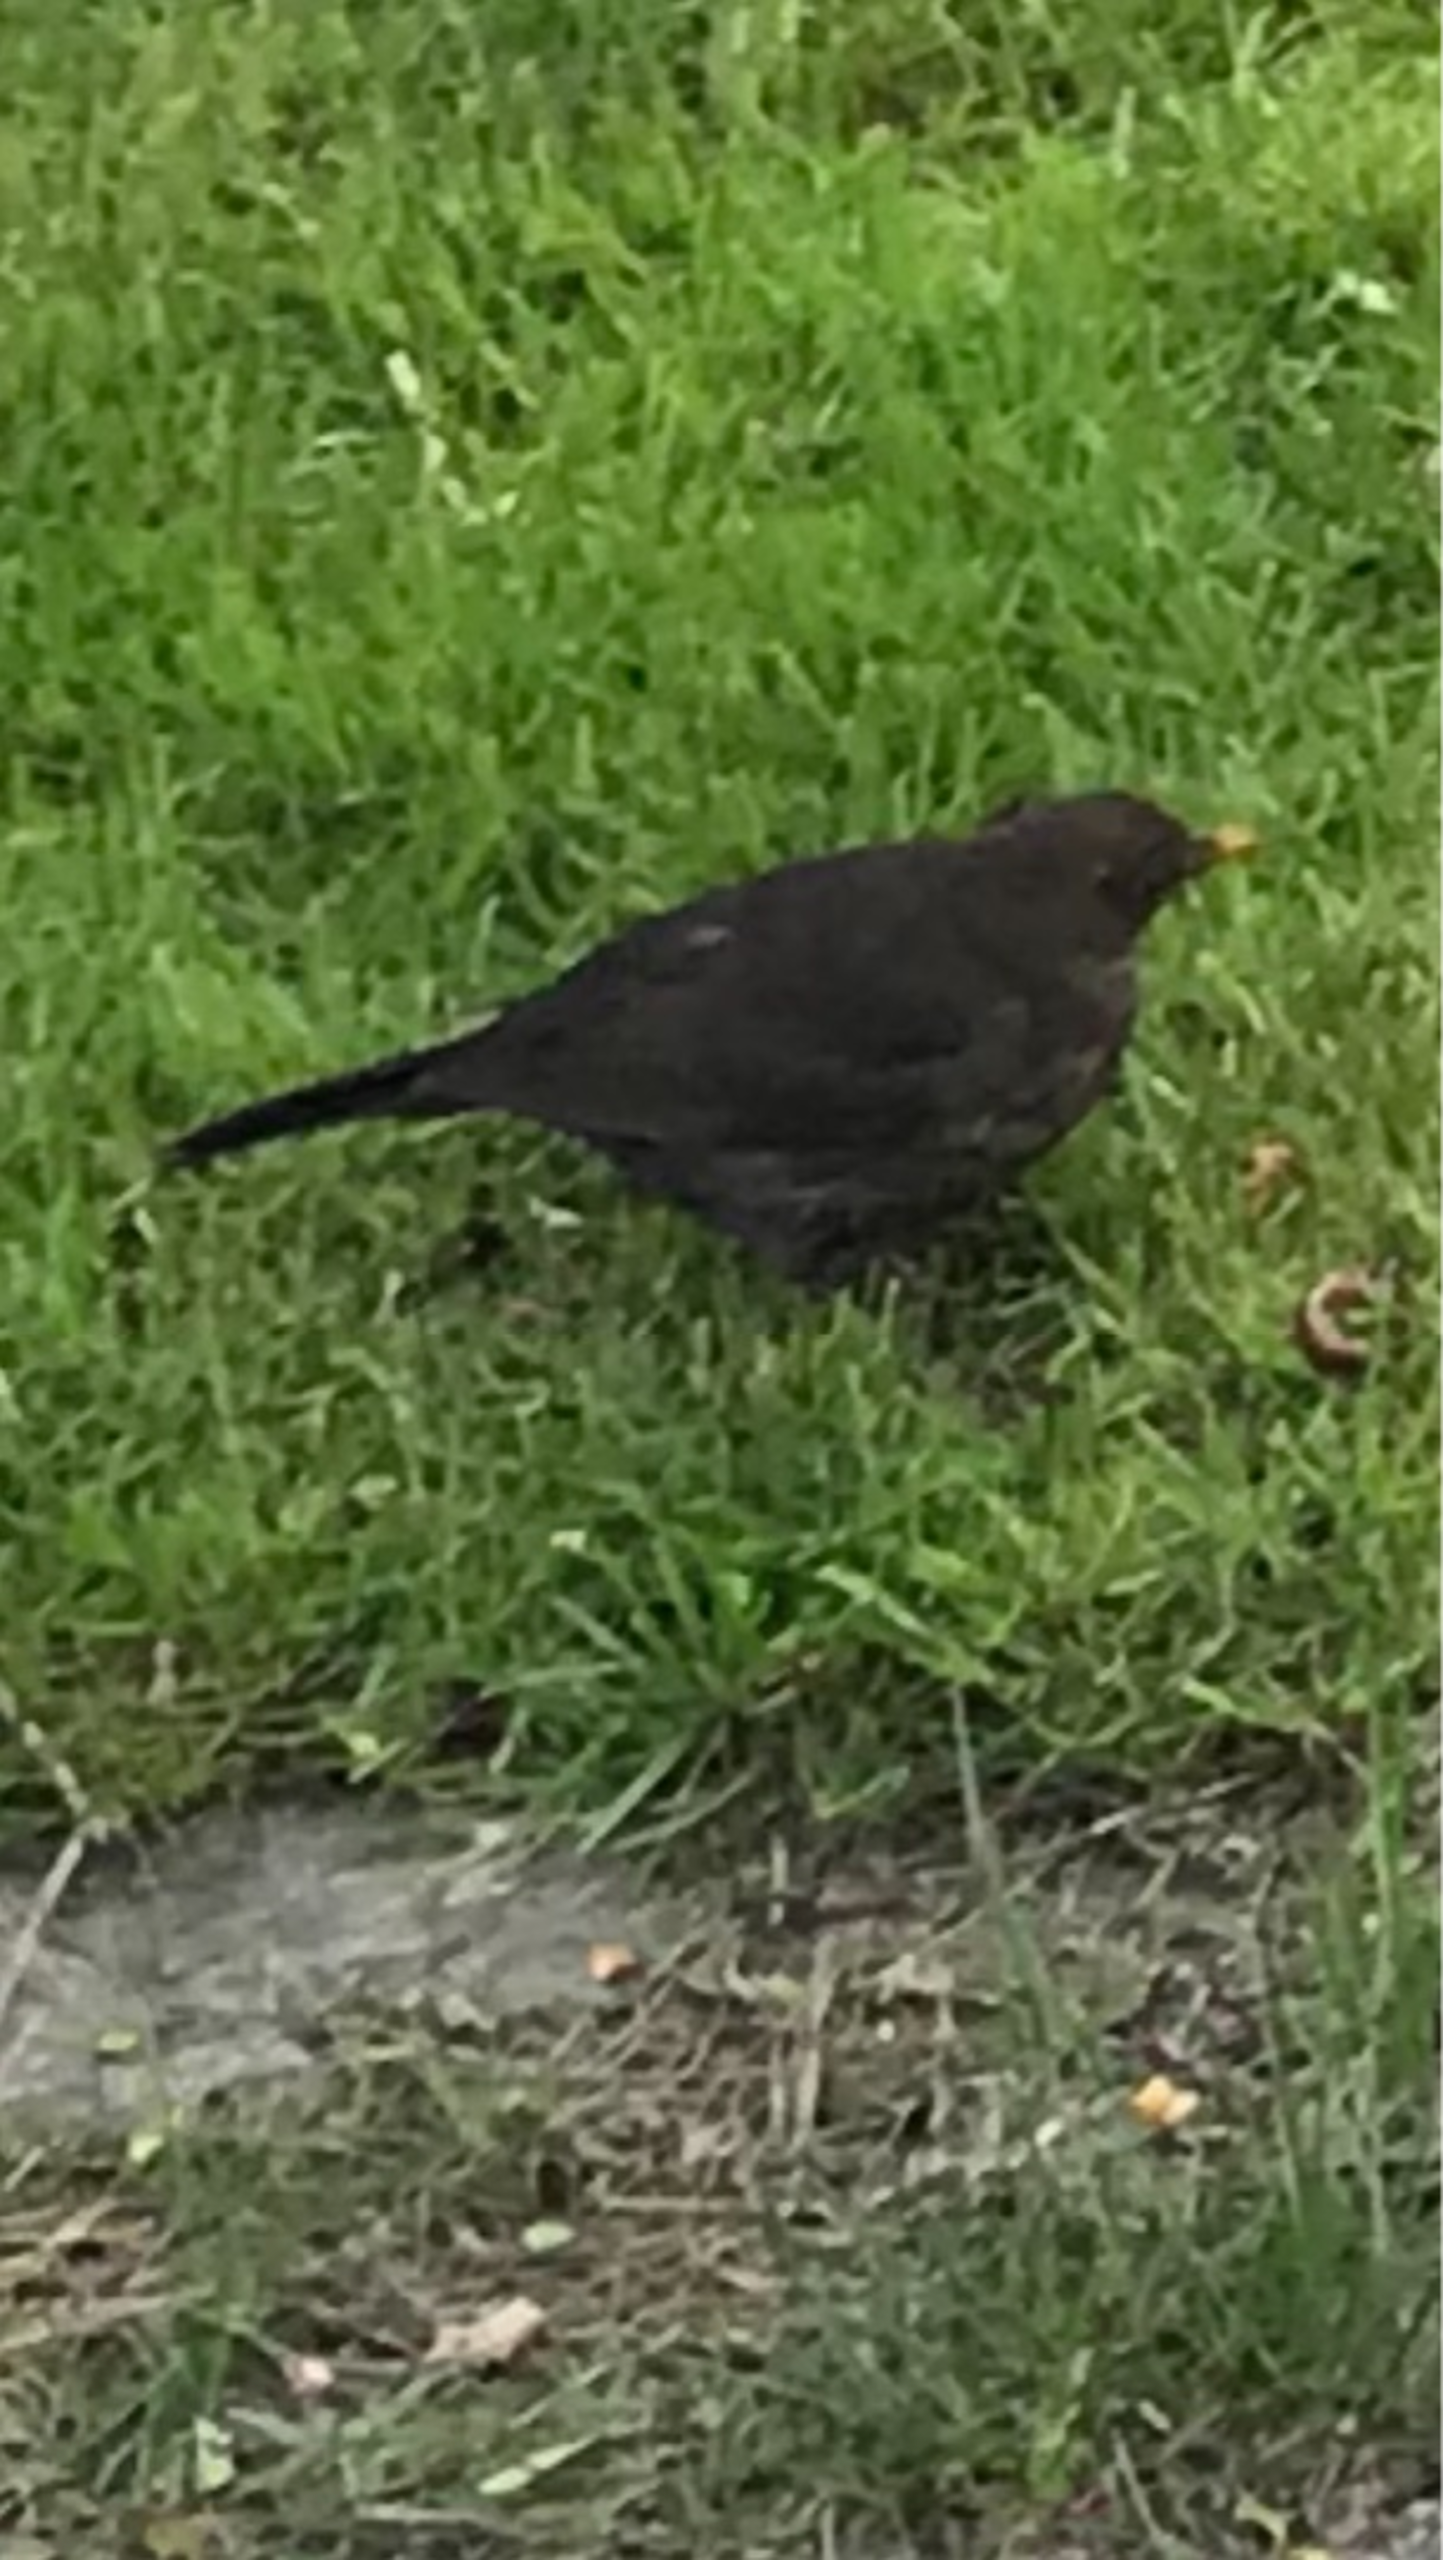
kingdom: Animalia
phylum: Chordata
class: Aves
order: Passeriformes
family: Turdidae
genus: Turdus
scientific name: Turdus merula
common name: Solsort
